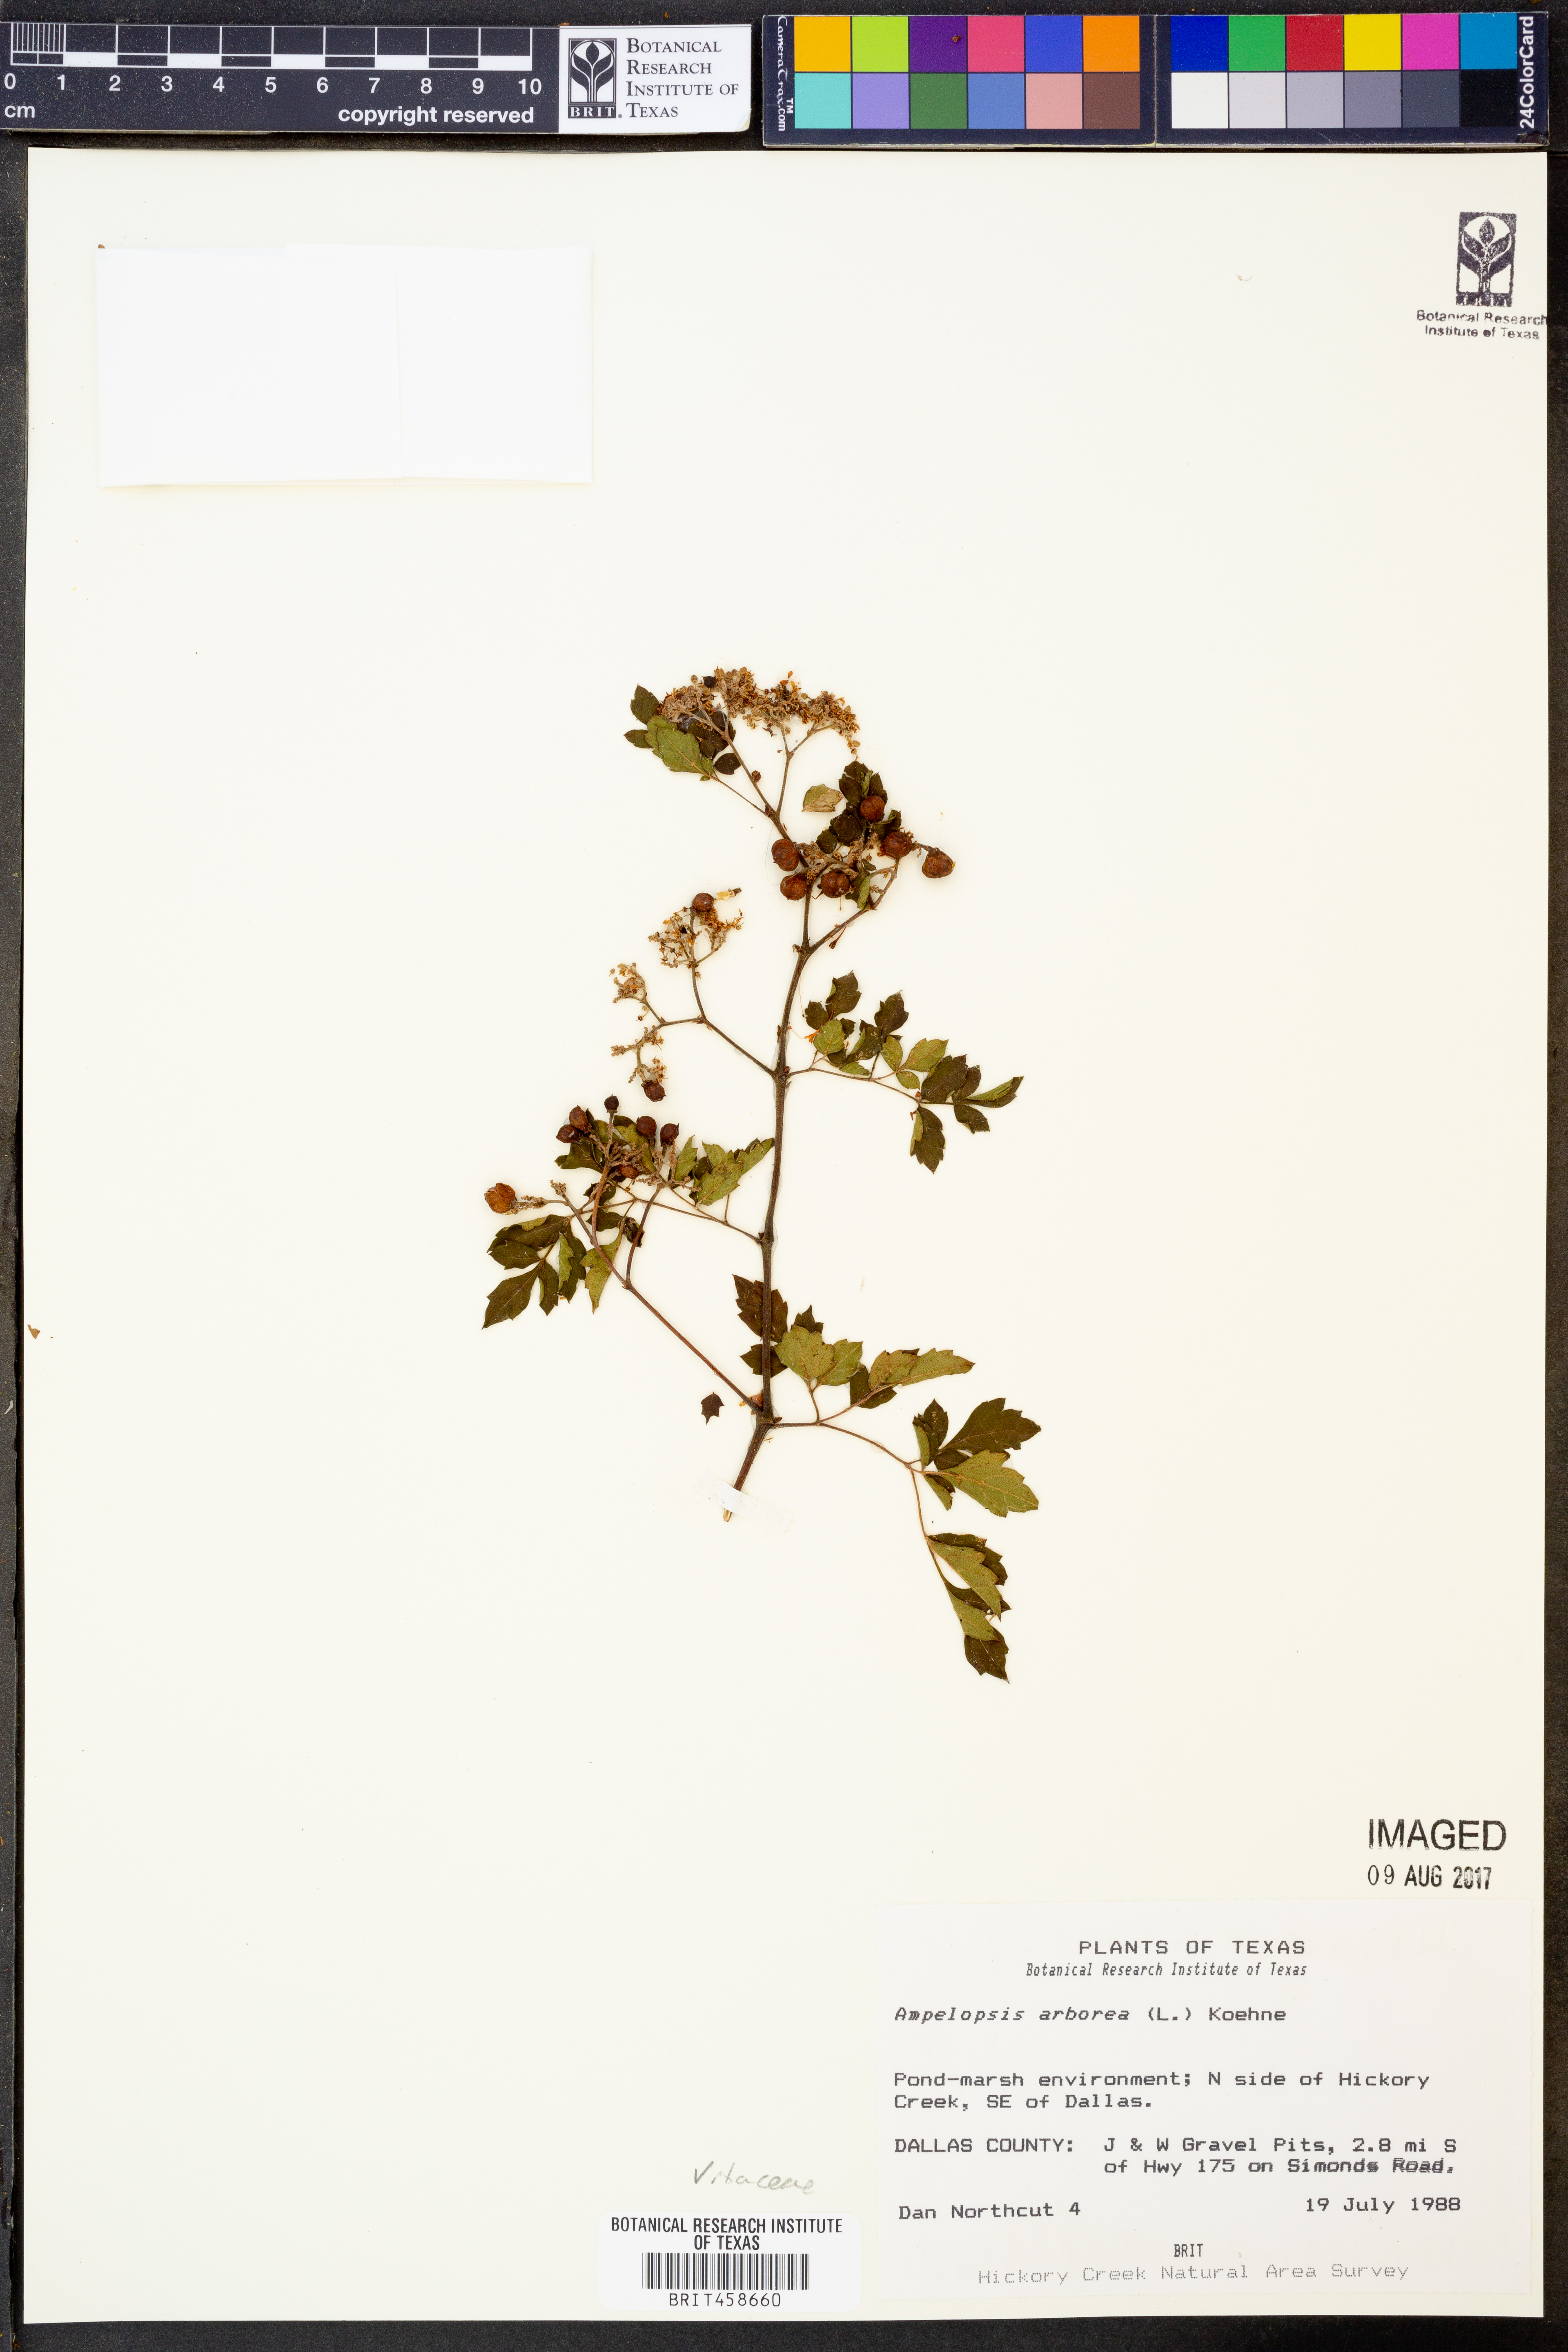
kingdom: Plantae
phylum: Tracheophyta
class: Magnoliopsida
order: Vitales
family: Vitaceae
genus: Nekemias
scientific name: Nekemias arborea
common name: Peppervine
